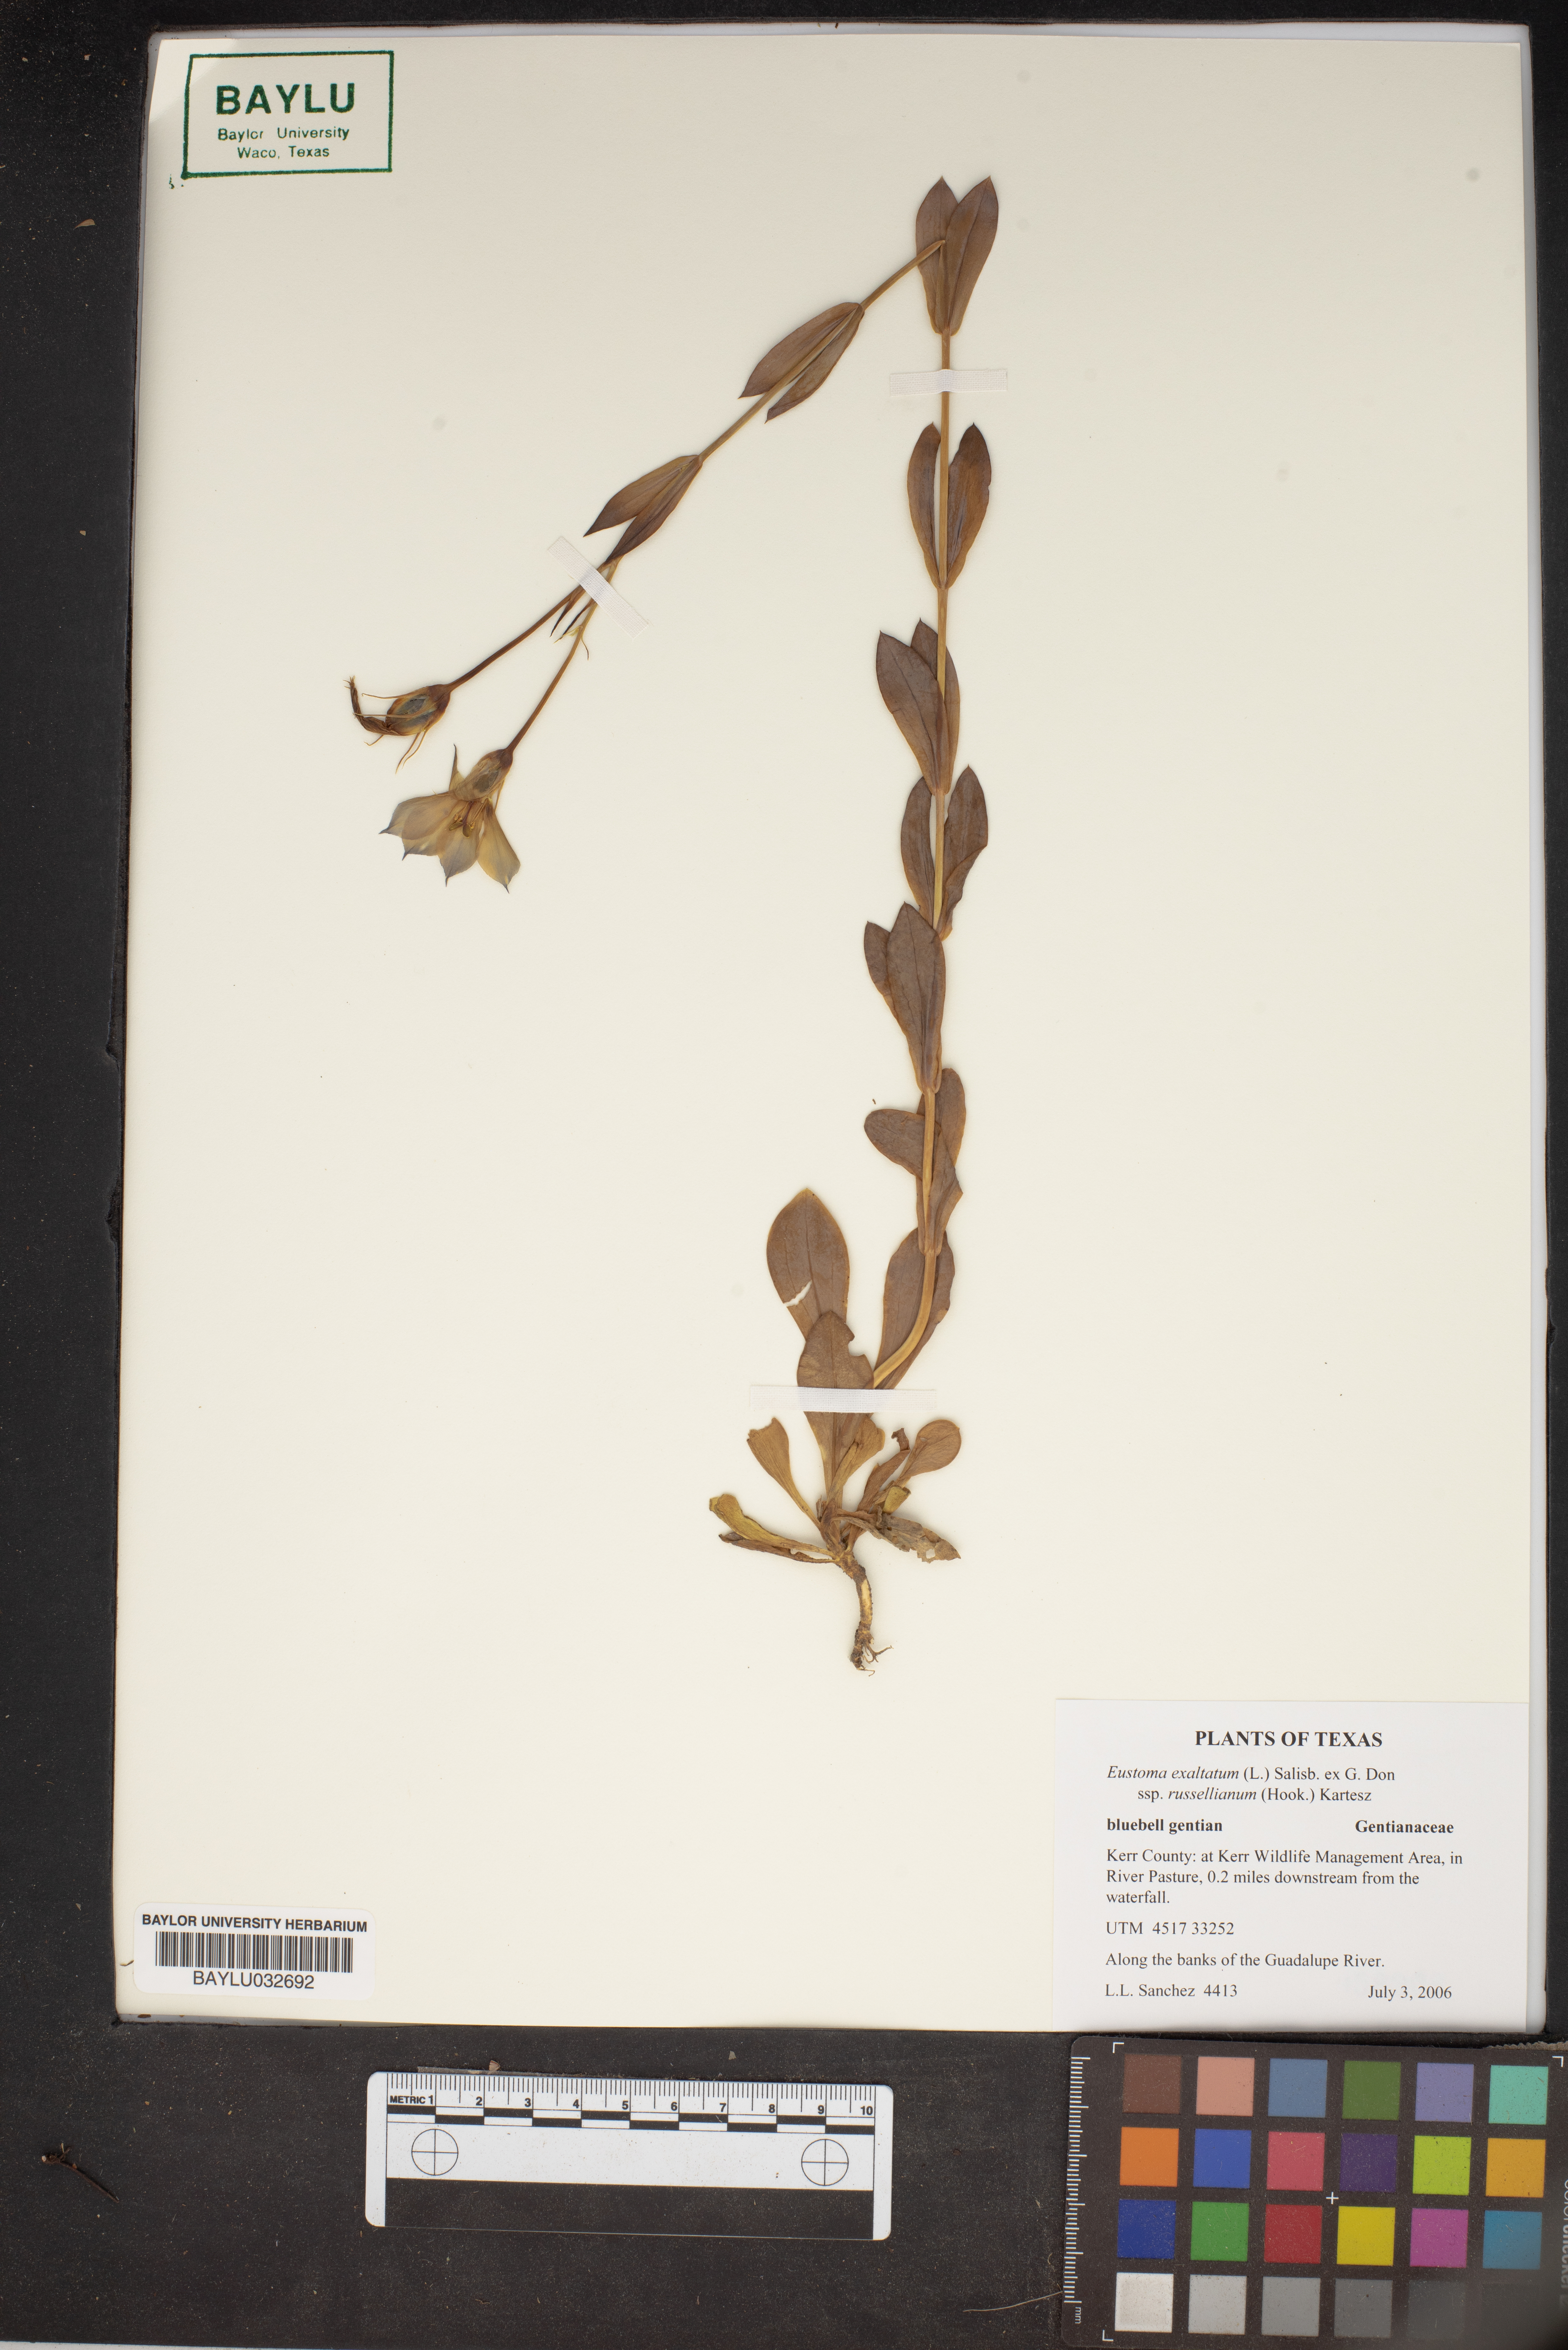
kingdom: Plantae
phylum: Tracheophyta
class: Magnoliopsida
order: Gentianales
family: Gentianaceae
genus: Eustoma
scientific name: Eustoma exaltatum
